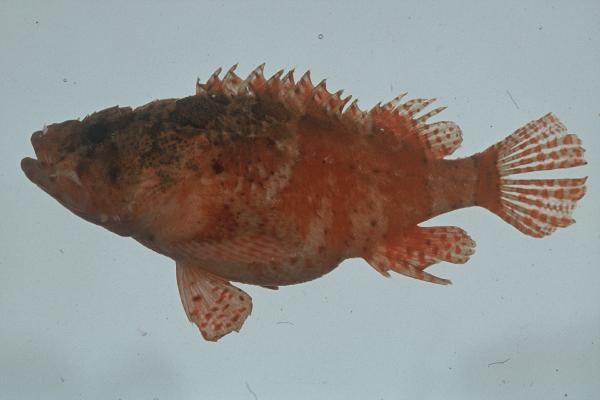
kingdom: Animalia
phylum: Chordata
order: Scorpaeniformes
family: Scorpaenidae
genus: Scorpaenodes
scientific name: Scorpaenodes parvipinnis
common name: Coral scorpionfish
